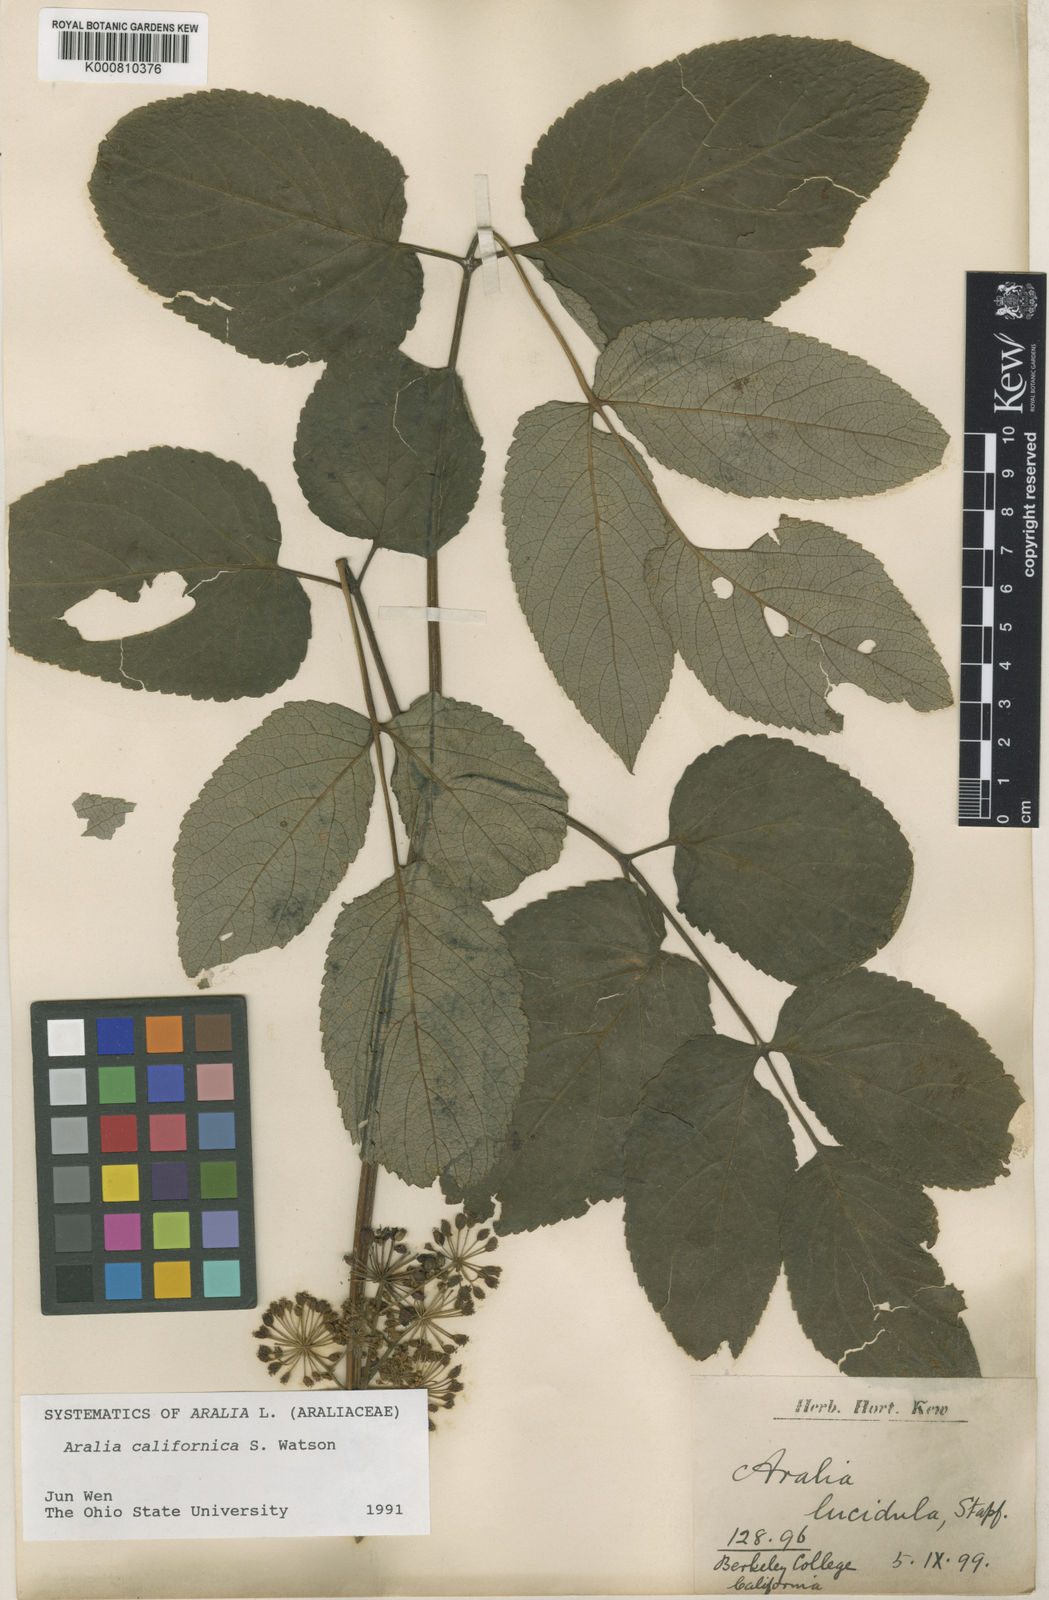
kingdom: Plantae
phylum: Tracheophyta
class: Magnoliopsida
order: Apiales
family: Araliaceae
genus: Aralia
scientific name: Aralia cachemirica
